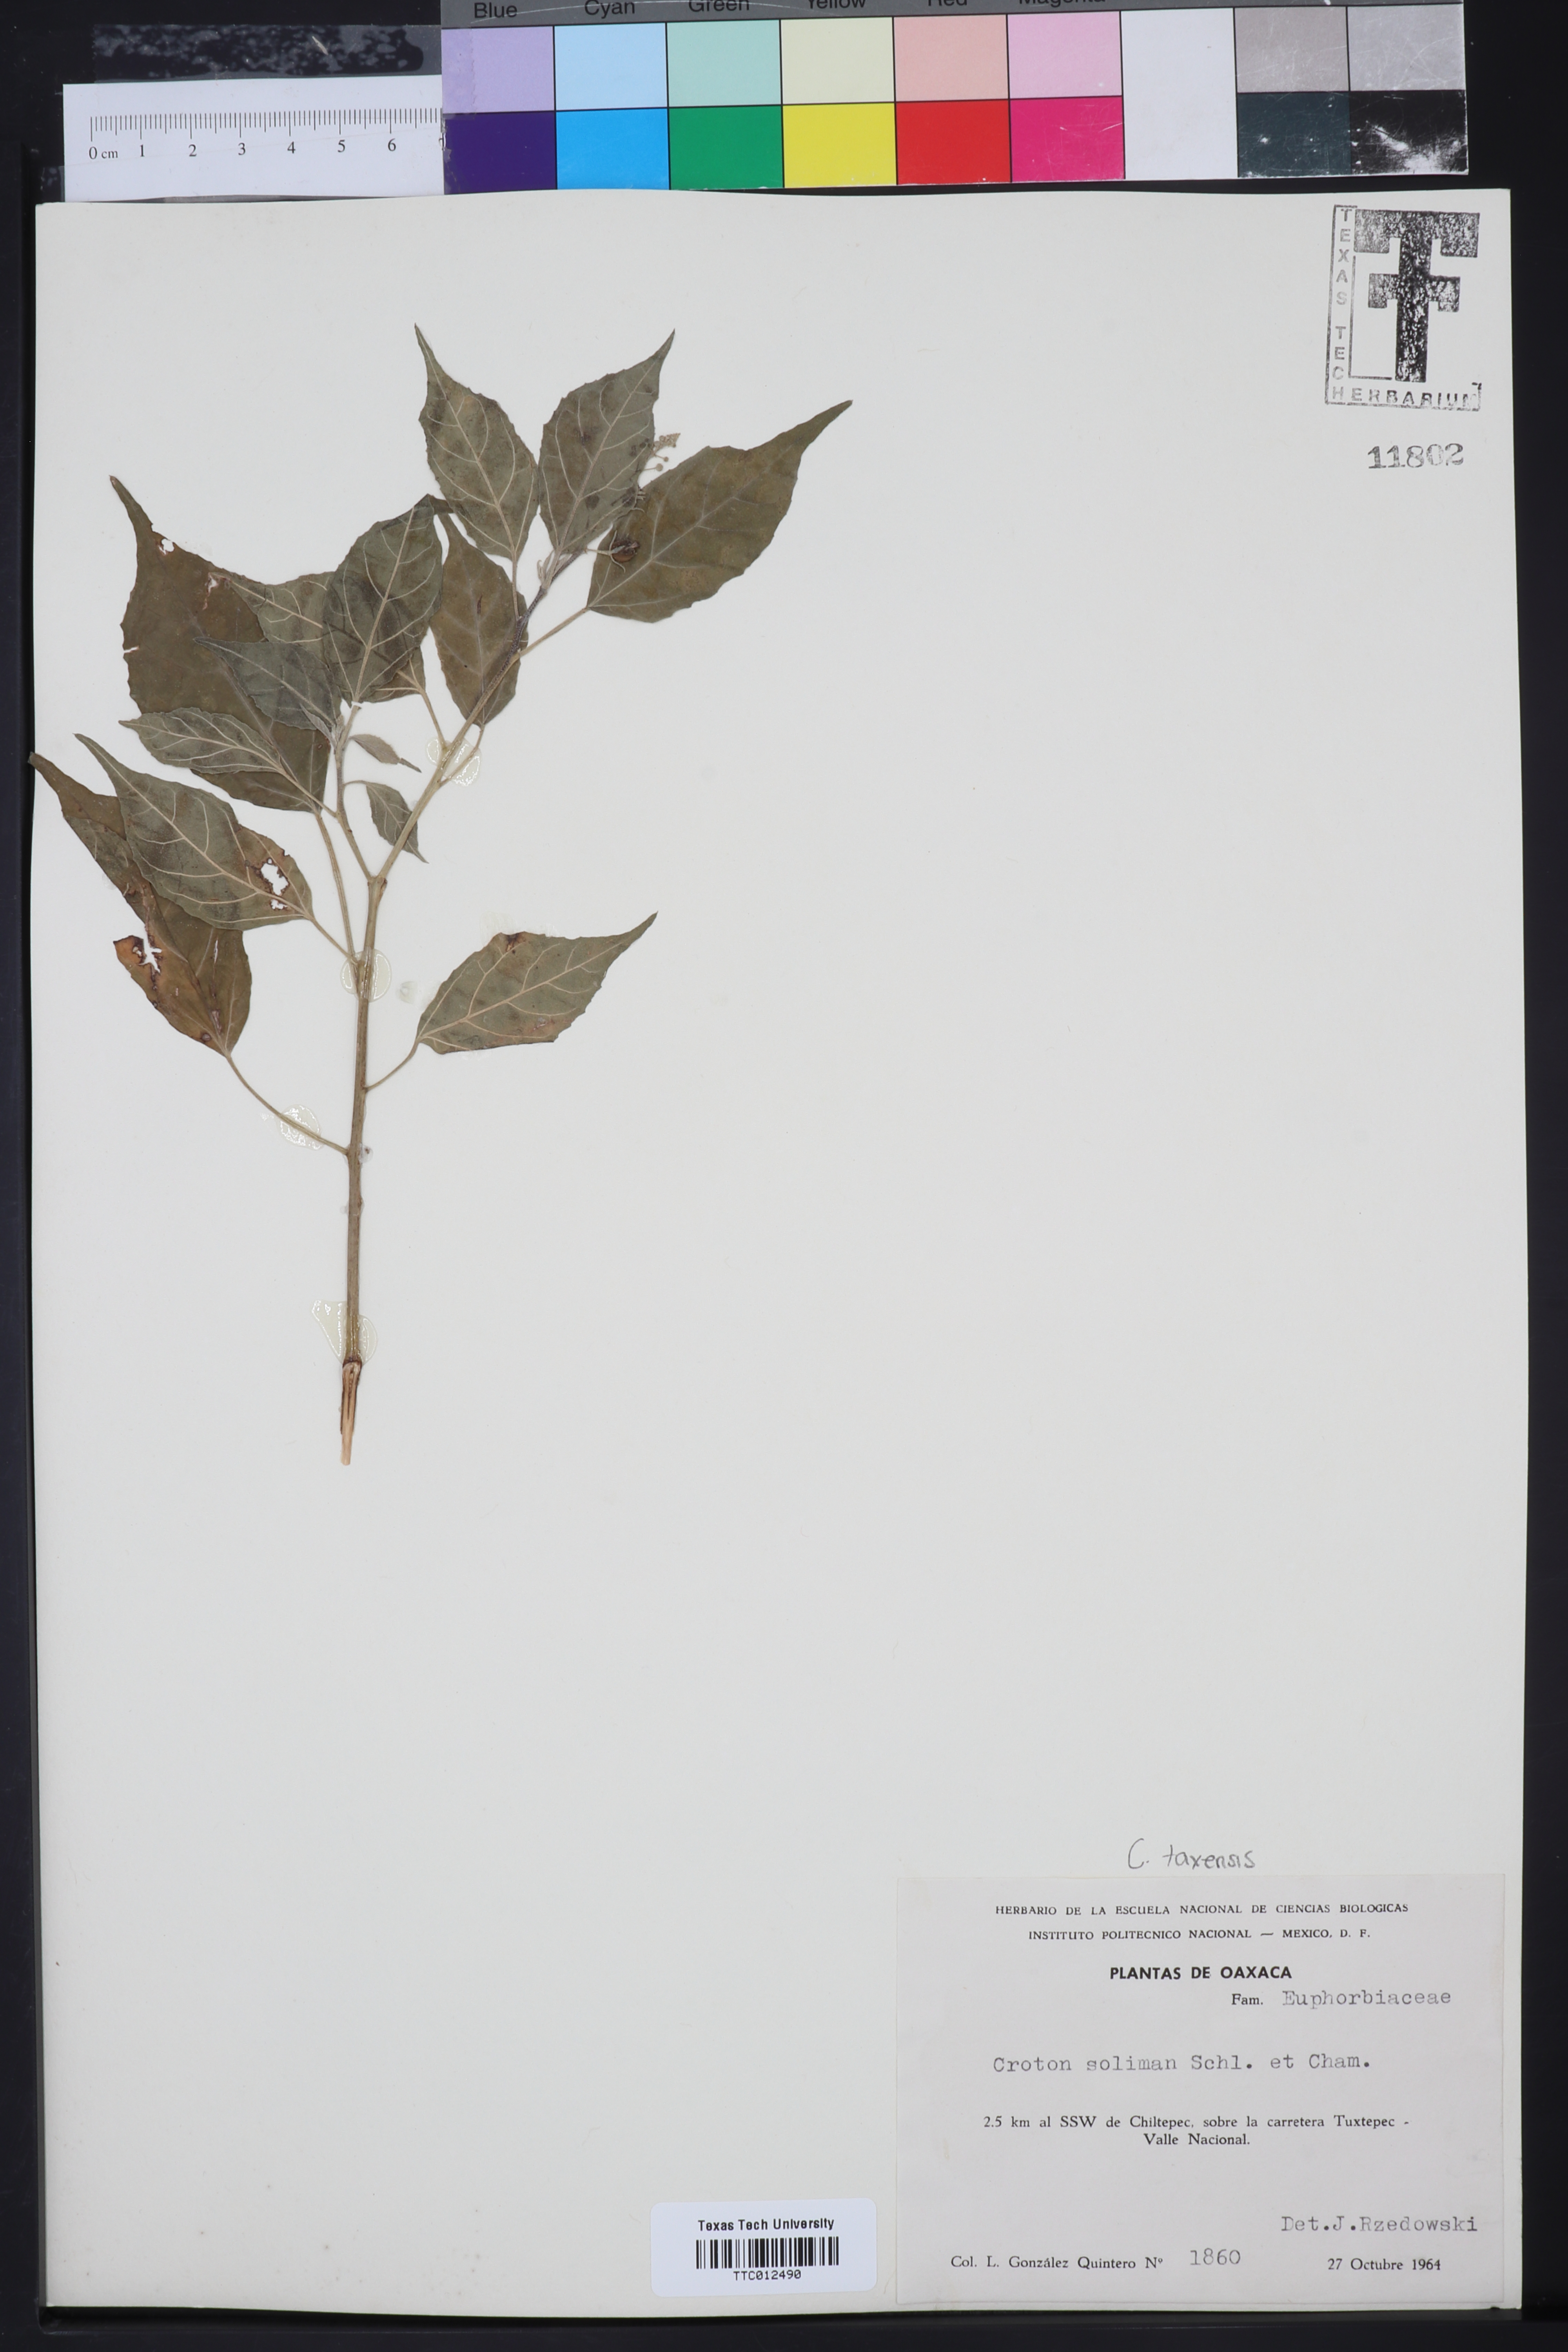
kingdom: Plantae
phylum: Tracheophyta
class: Magnoliopsida
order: Malpighiales
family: Euphorbiaceae
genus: Croton
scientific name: Croton soliman
